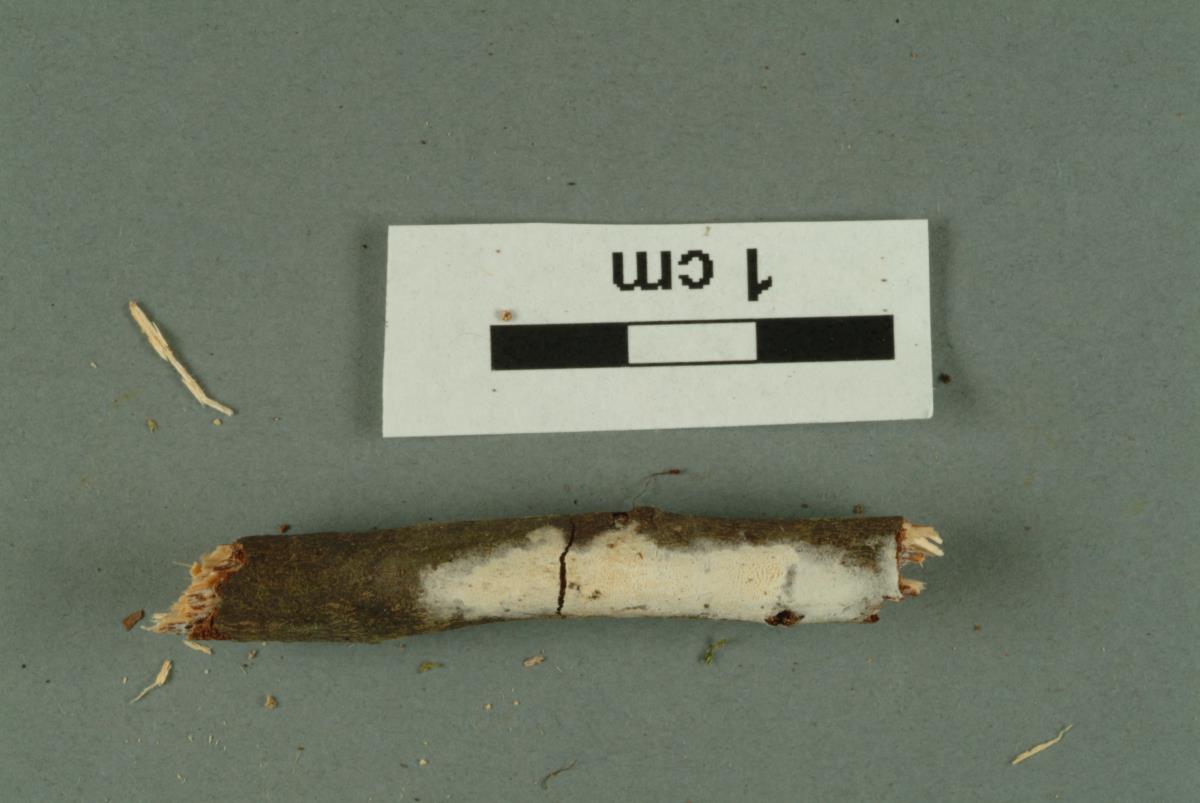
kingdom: Fungi
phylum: Basidiomycota
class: Agaricomycetes
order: Agaricales
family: Marasmiaceae
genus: Rectipilus
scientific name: Rectipilus fasciculatus
